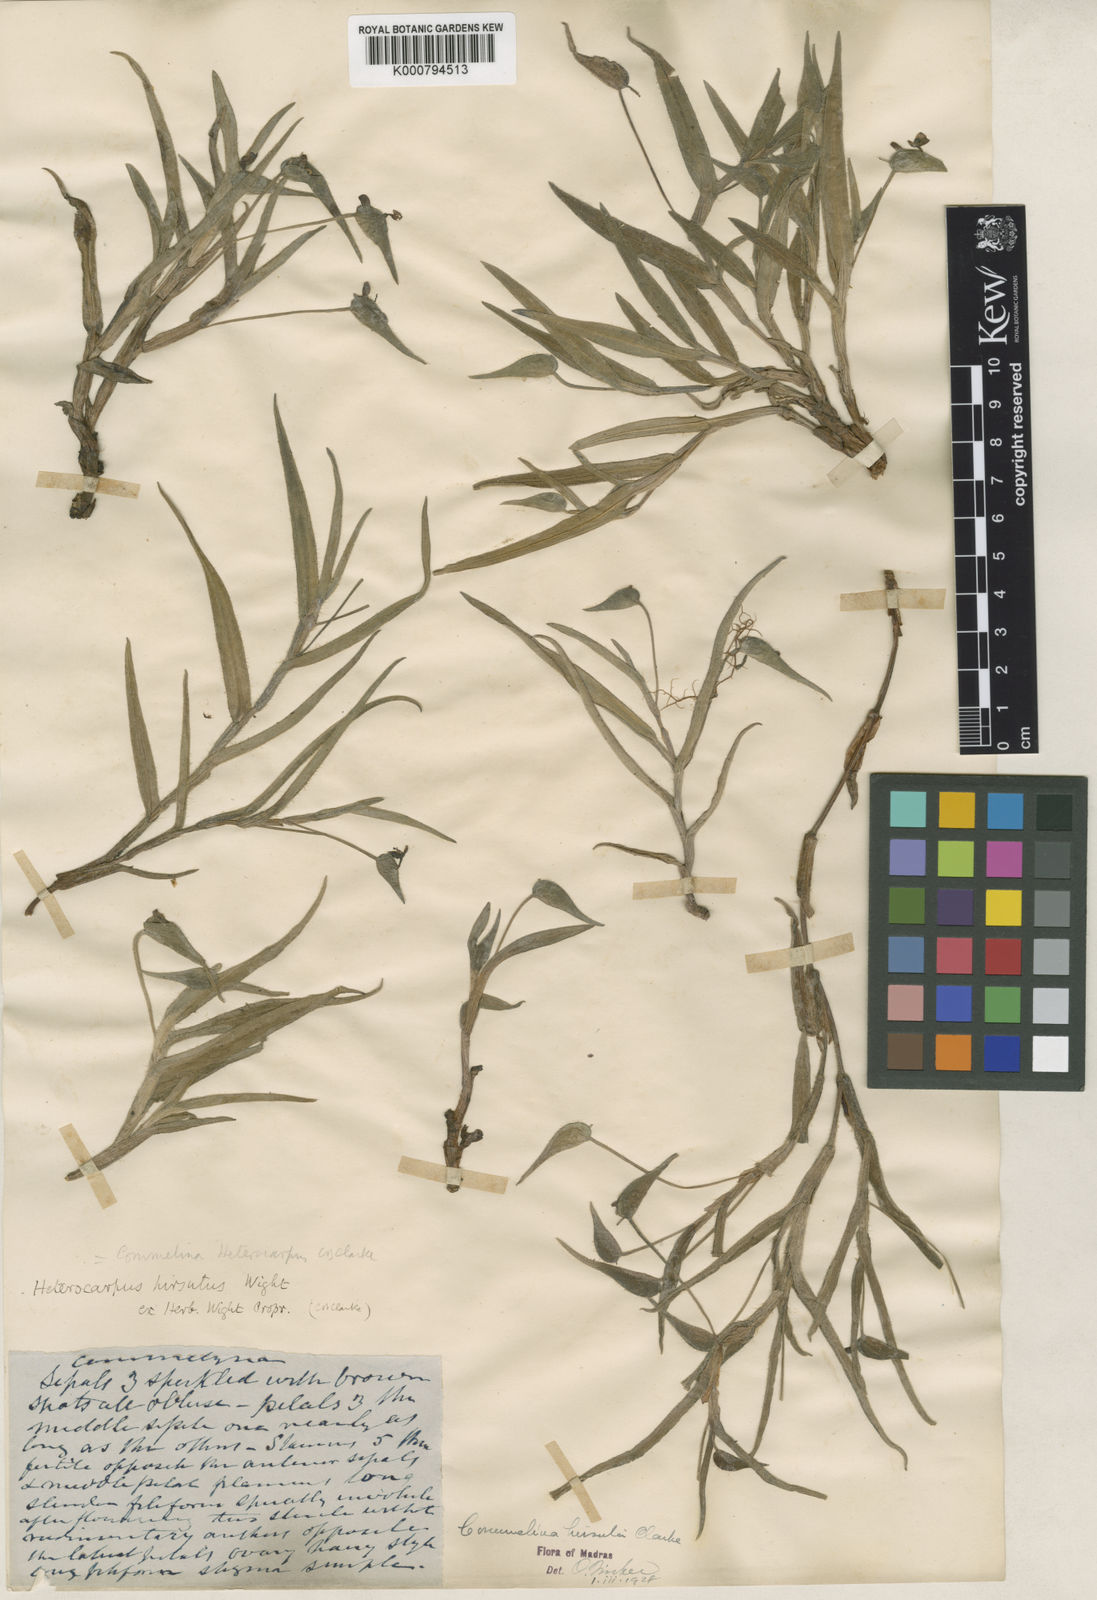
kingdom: Plantae
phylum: Tracheophyta
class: Liliopsida
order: Commelinales
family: Commelinaceae
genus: Commelina
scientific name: Commelina
